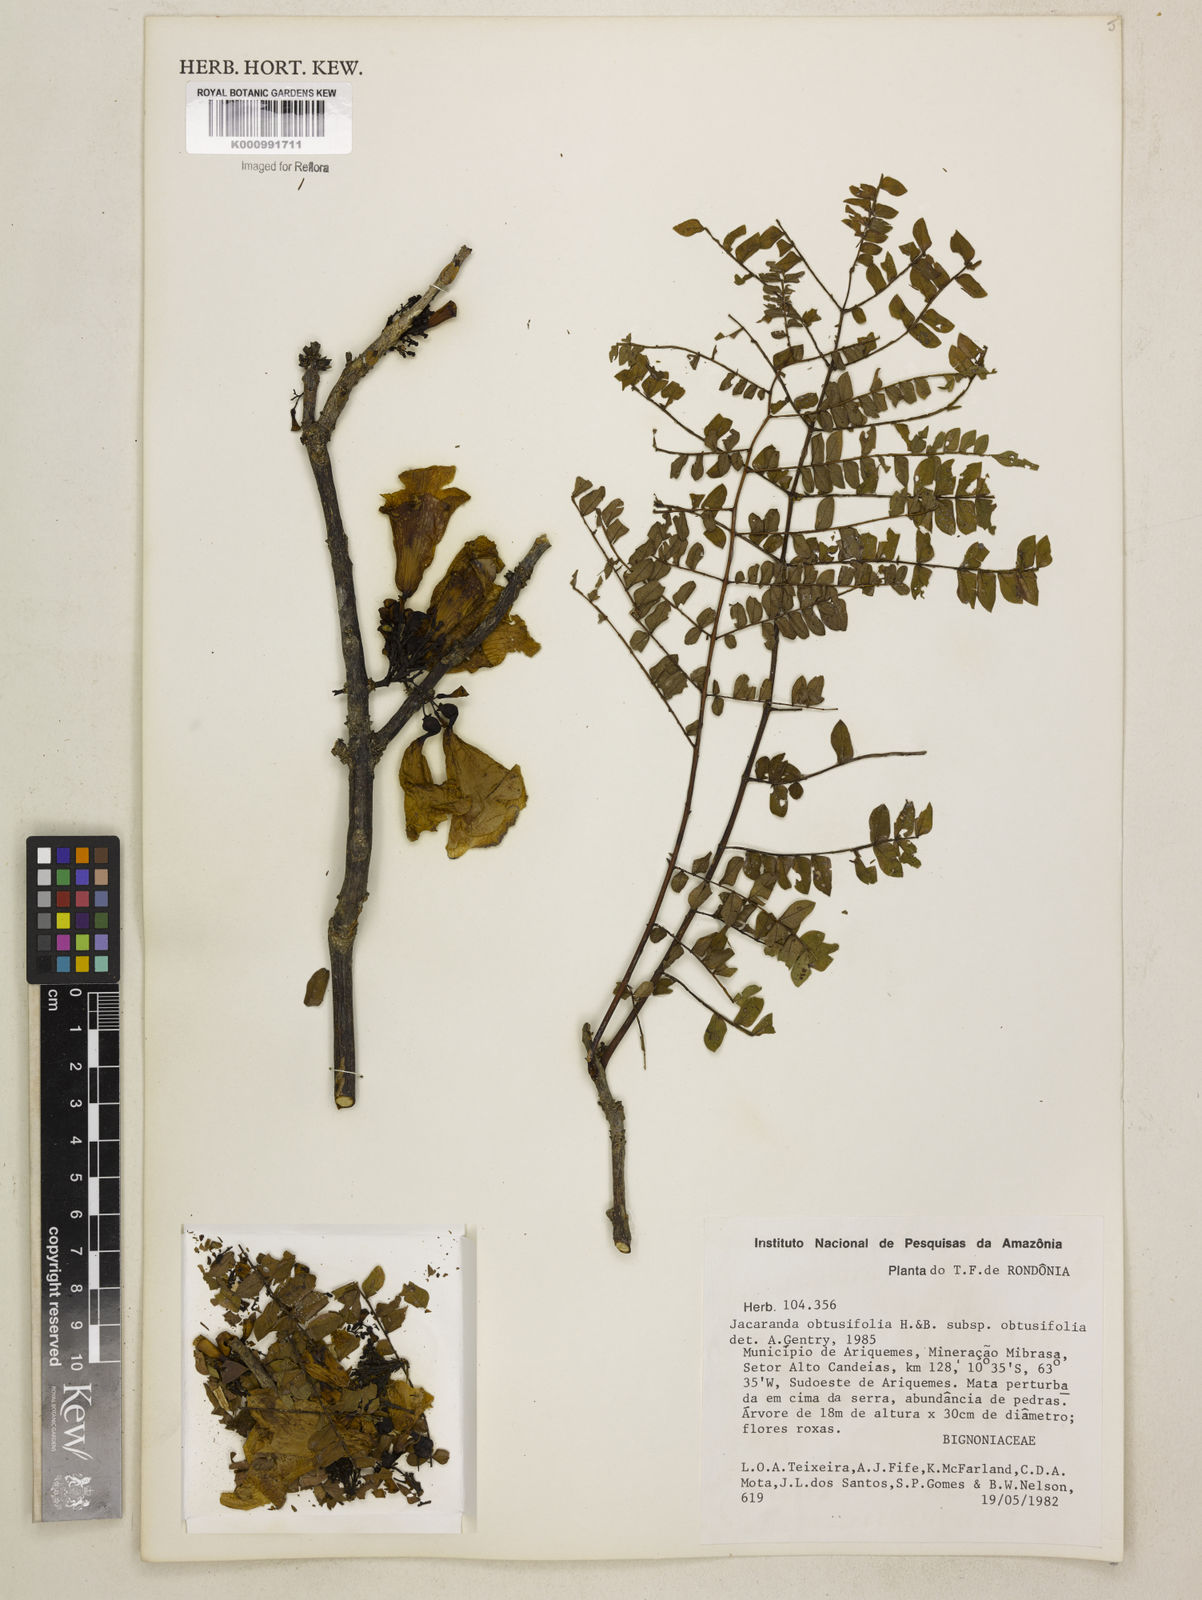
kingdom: Plantae
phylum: Tracheophyta
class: Magnoliopsida
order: Lamiales
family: Bignoniaceae
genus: Jacaranda
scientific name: Jacaranda obtusifolia
